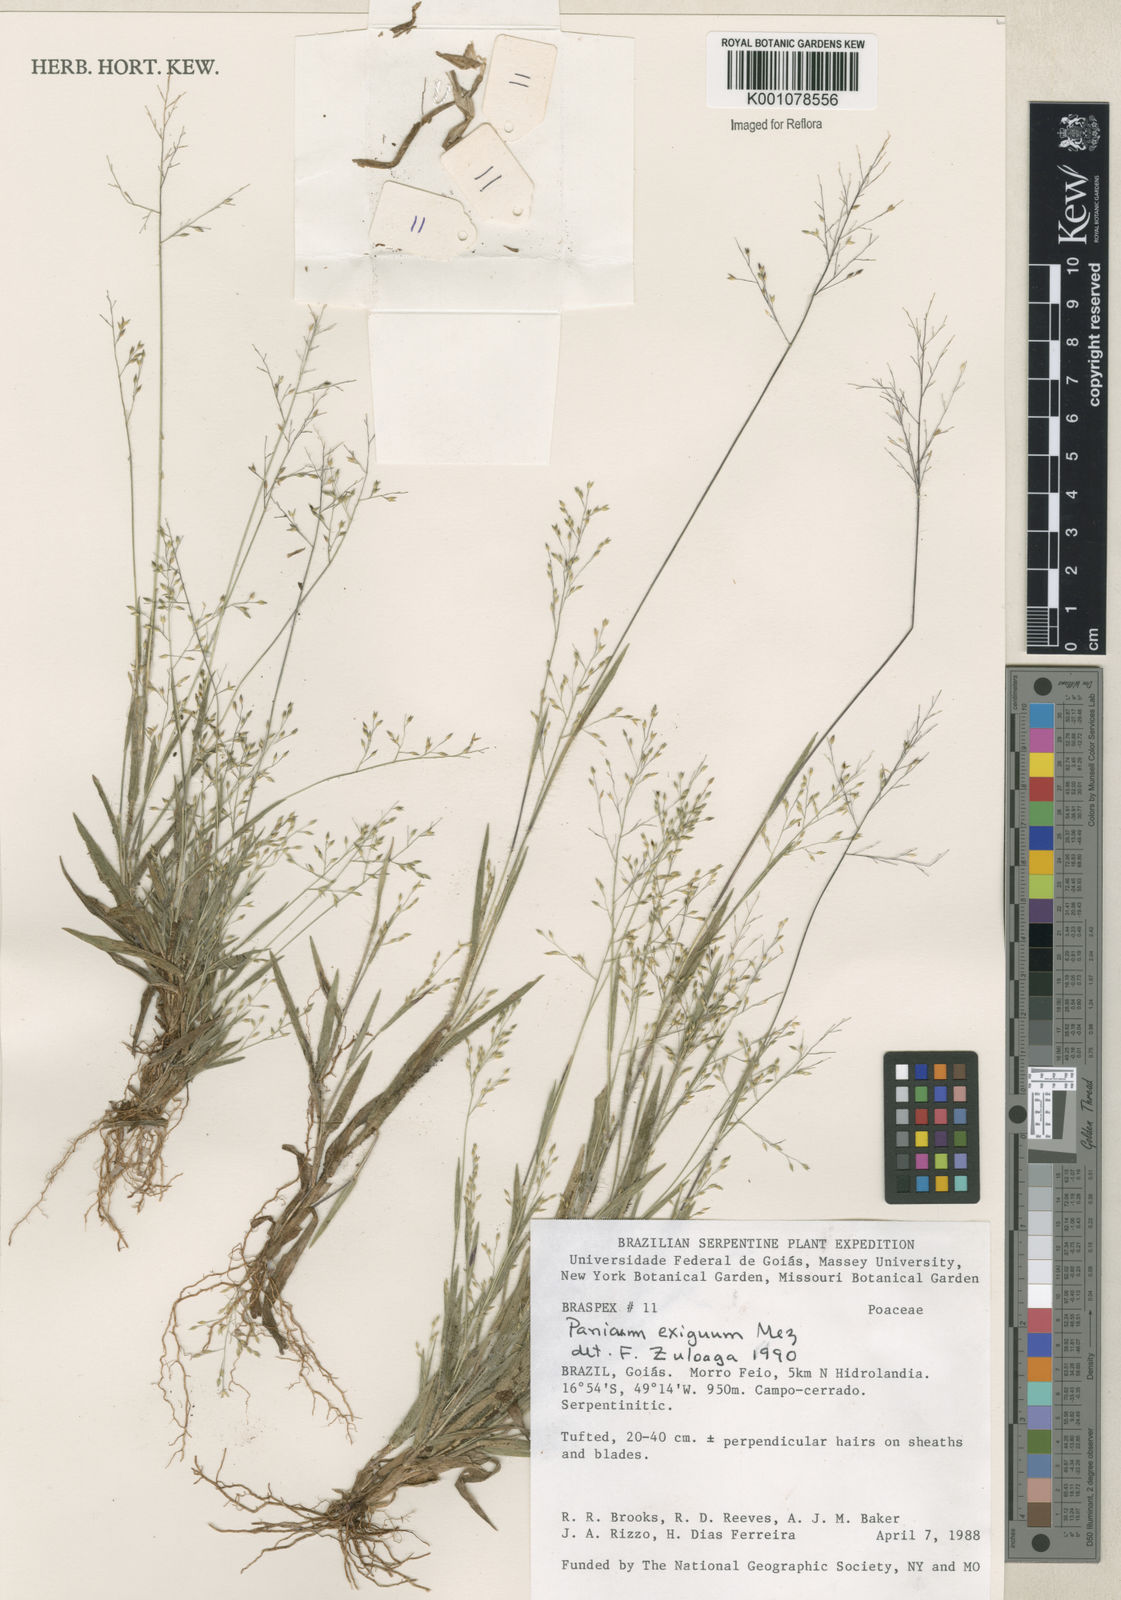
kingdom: Plantae
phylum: Tracheophyta
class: Liliopsida
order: Poales
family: Poaceae
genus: Panicum
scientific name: Panicum exiguum
